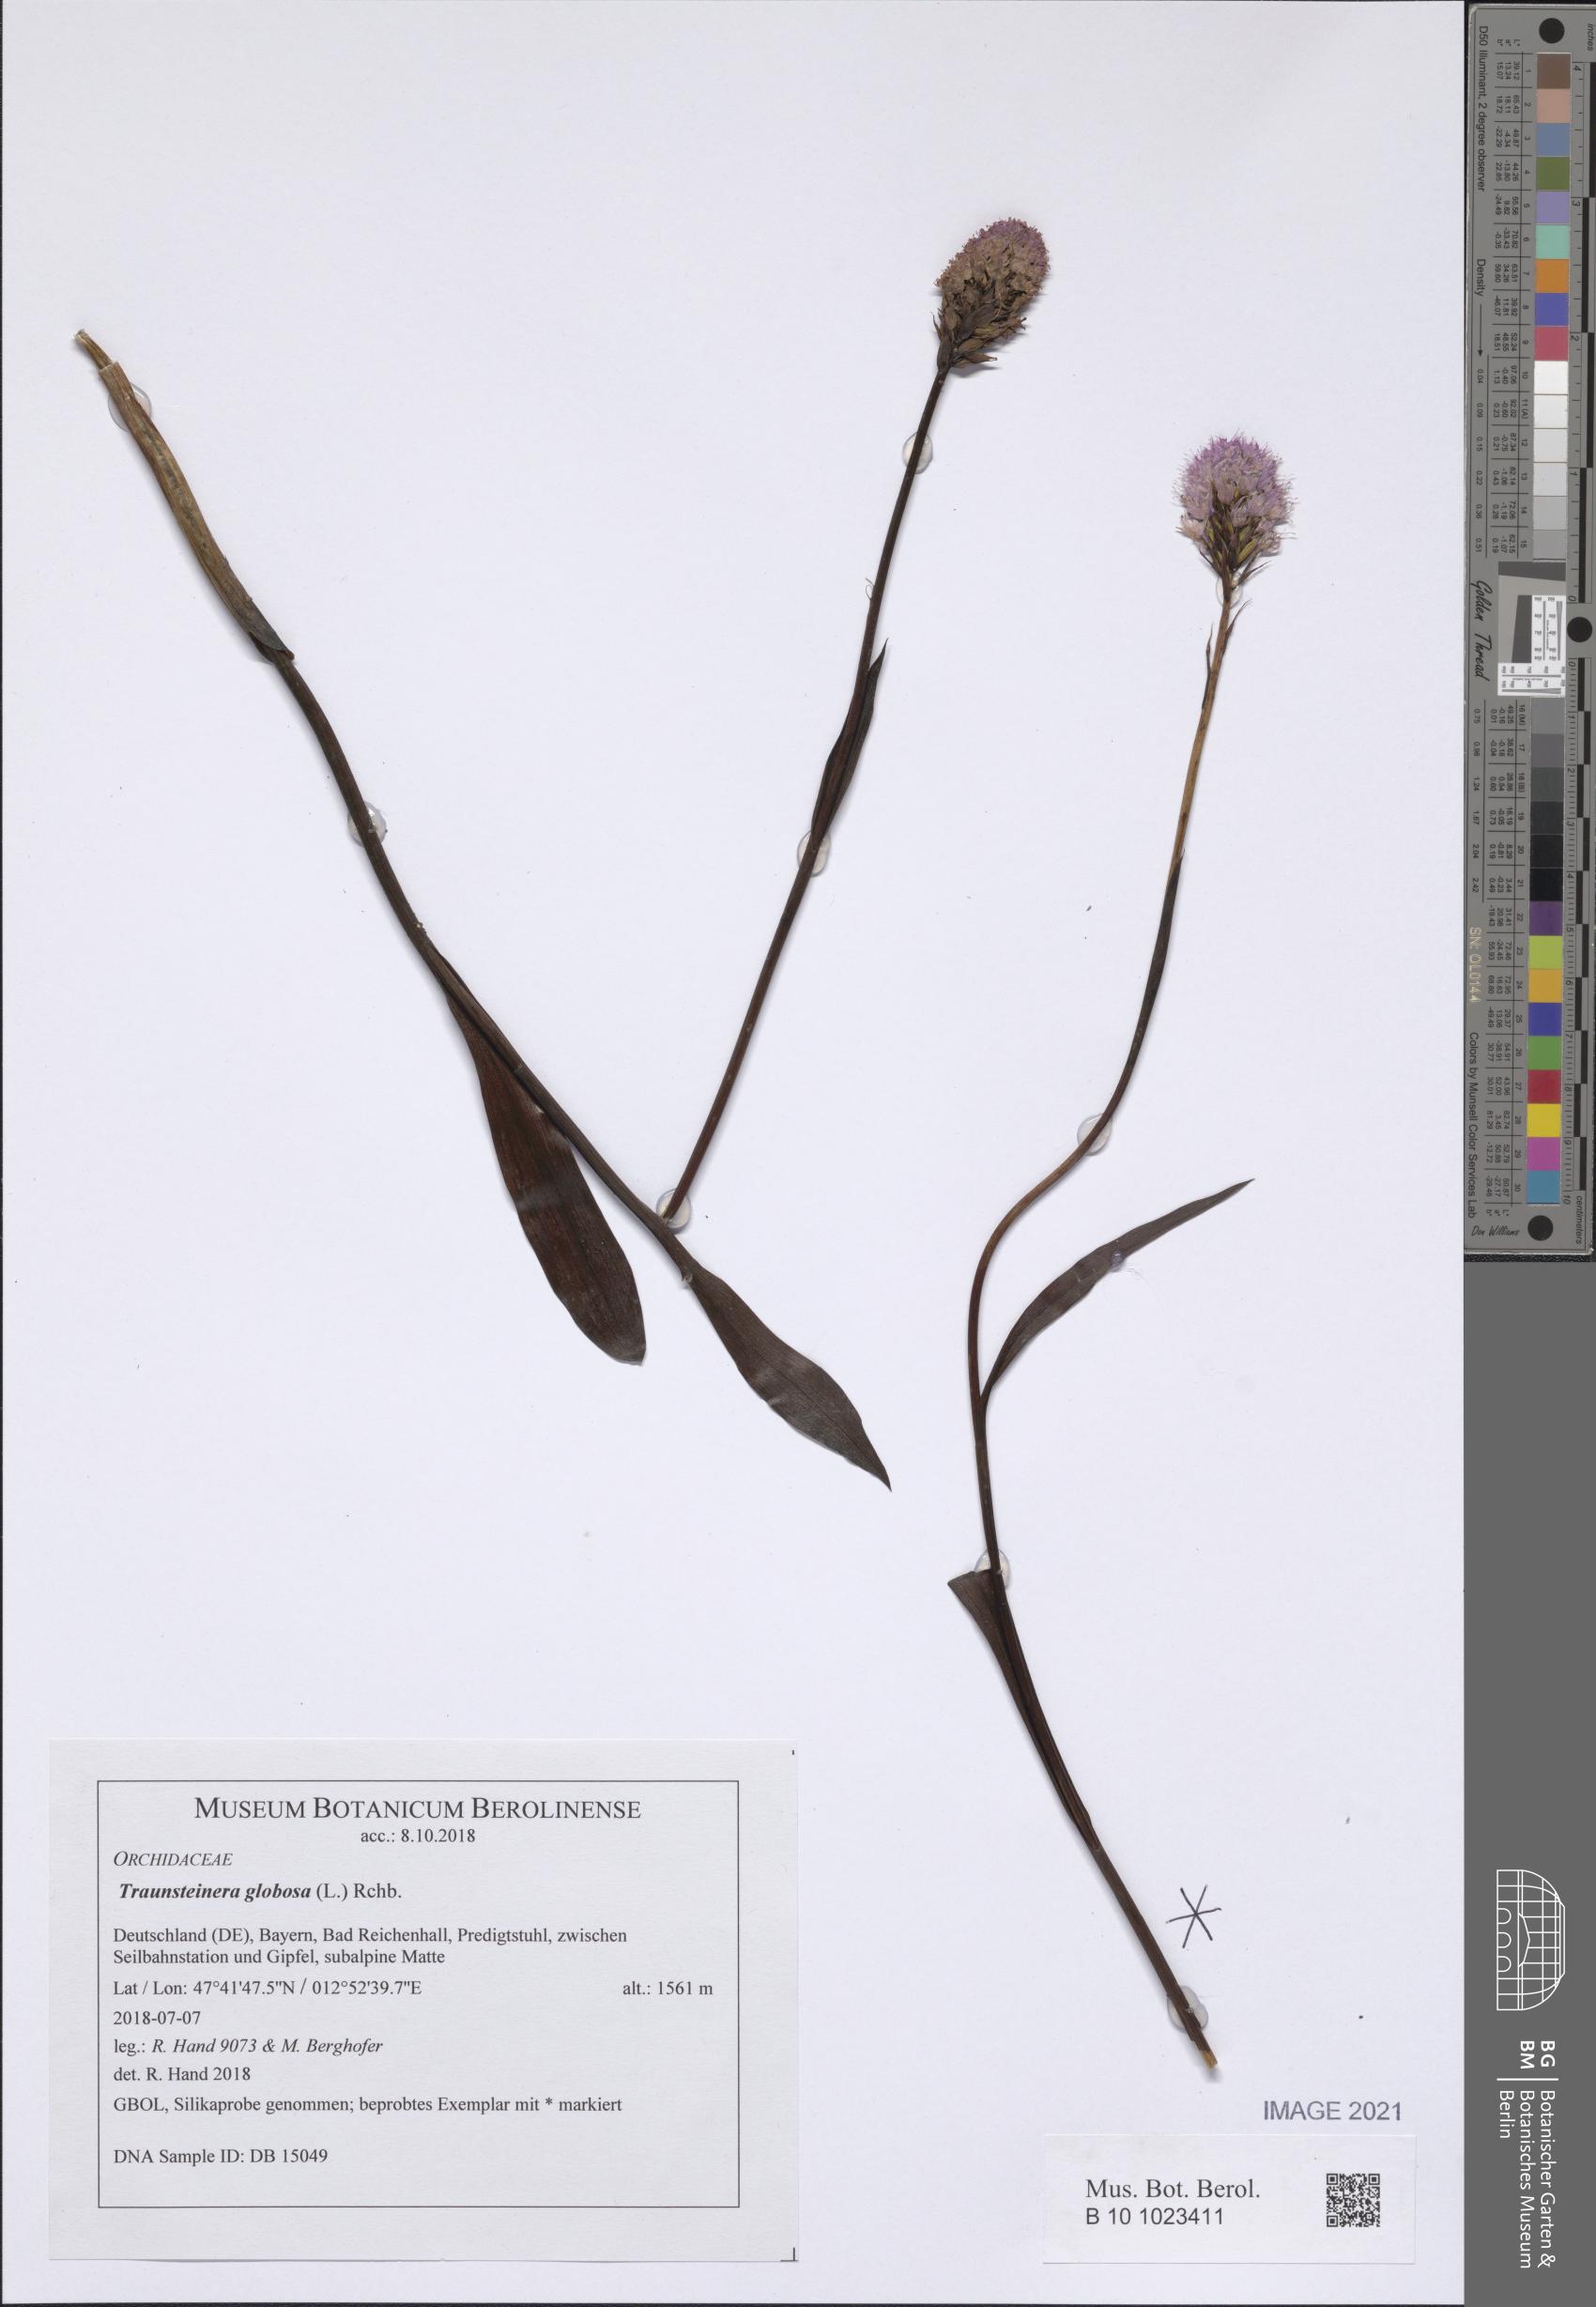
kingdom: Plantae
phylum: Tracheophyta
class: Liliopsida
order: Asparagales
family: Orchidaceae
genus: Traunsteinera
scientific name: Traunsteinera globosa
